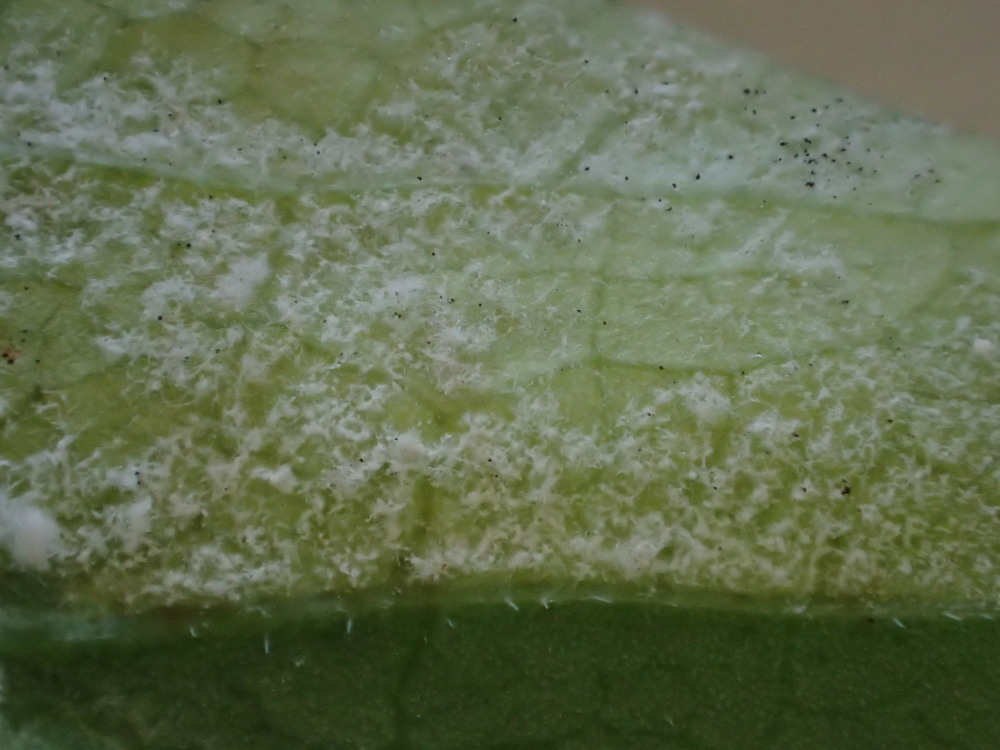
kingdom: Chromista
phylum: Oomycota
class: Peronosporea
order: Peronosporales
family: Peronosporaceae
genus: Peronospora
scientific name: Peronospora crustosa
